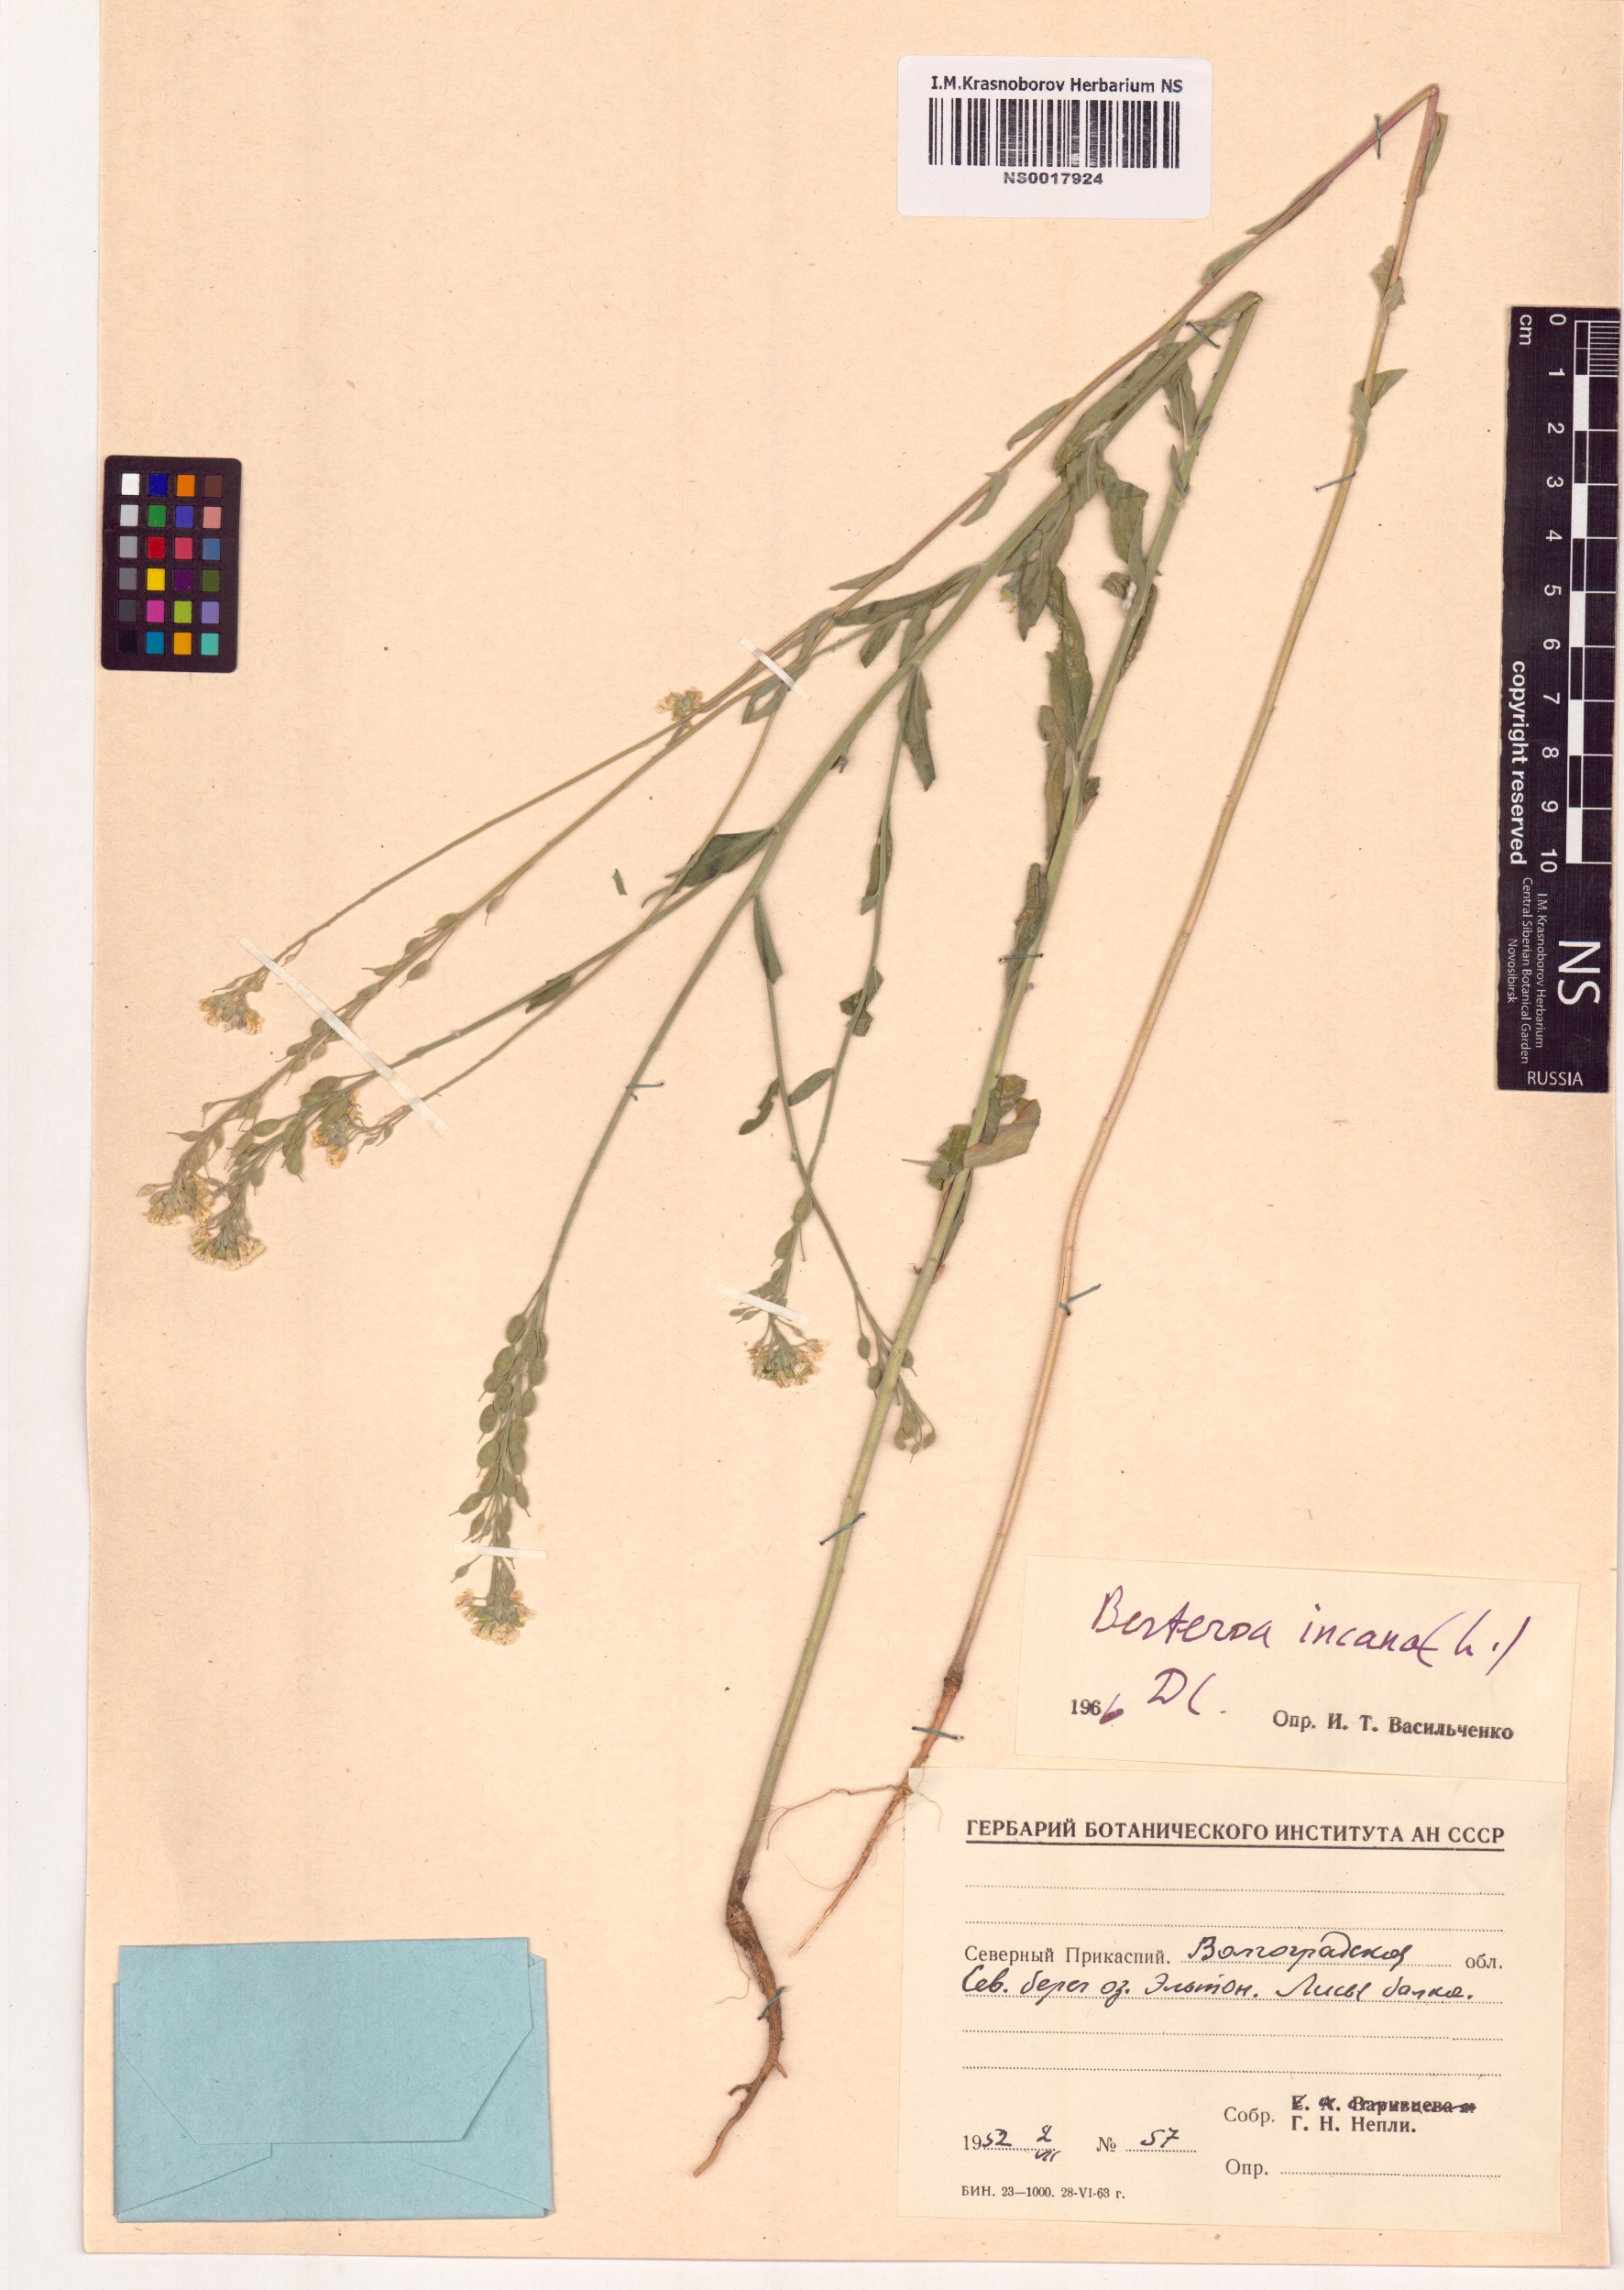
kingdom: Plantae
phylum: Tracheophyta
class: Magnoliopsida
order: Brassicales
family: Brassicaceae
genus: Berteroa
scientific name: Berteroa incana
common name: Hoary alison
